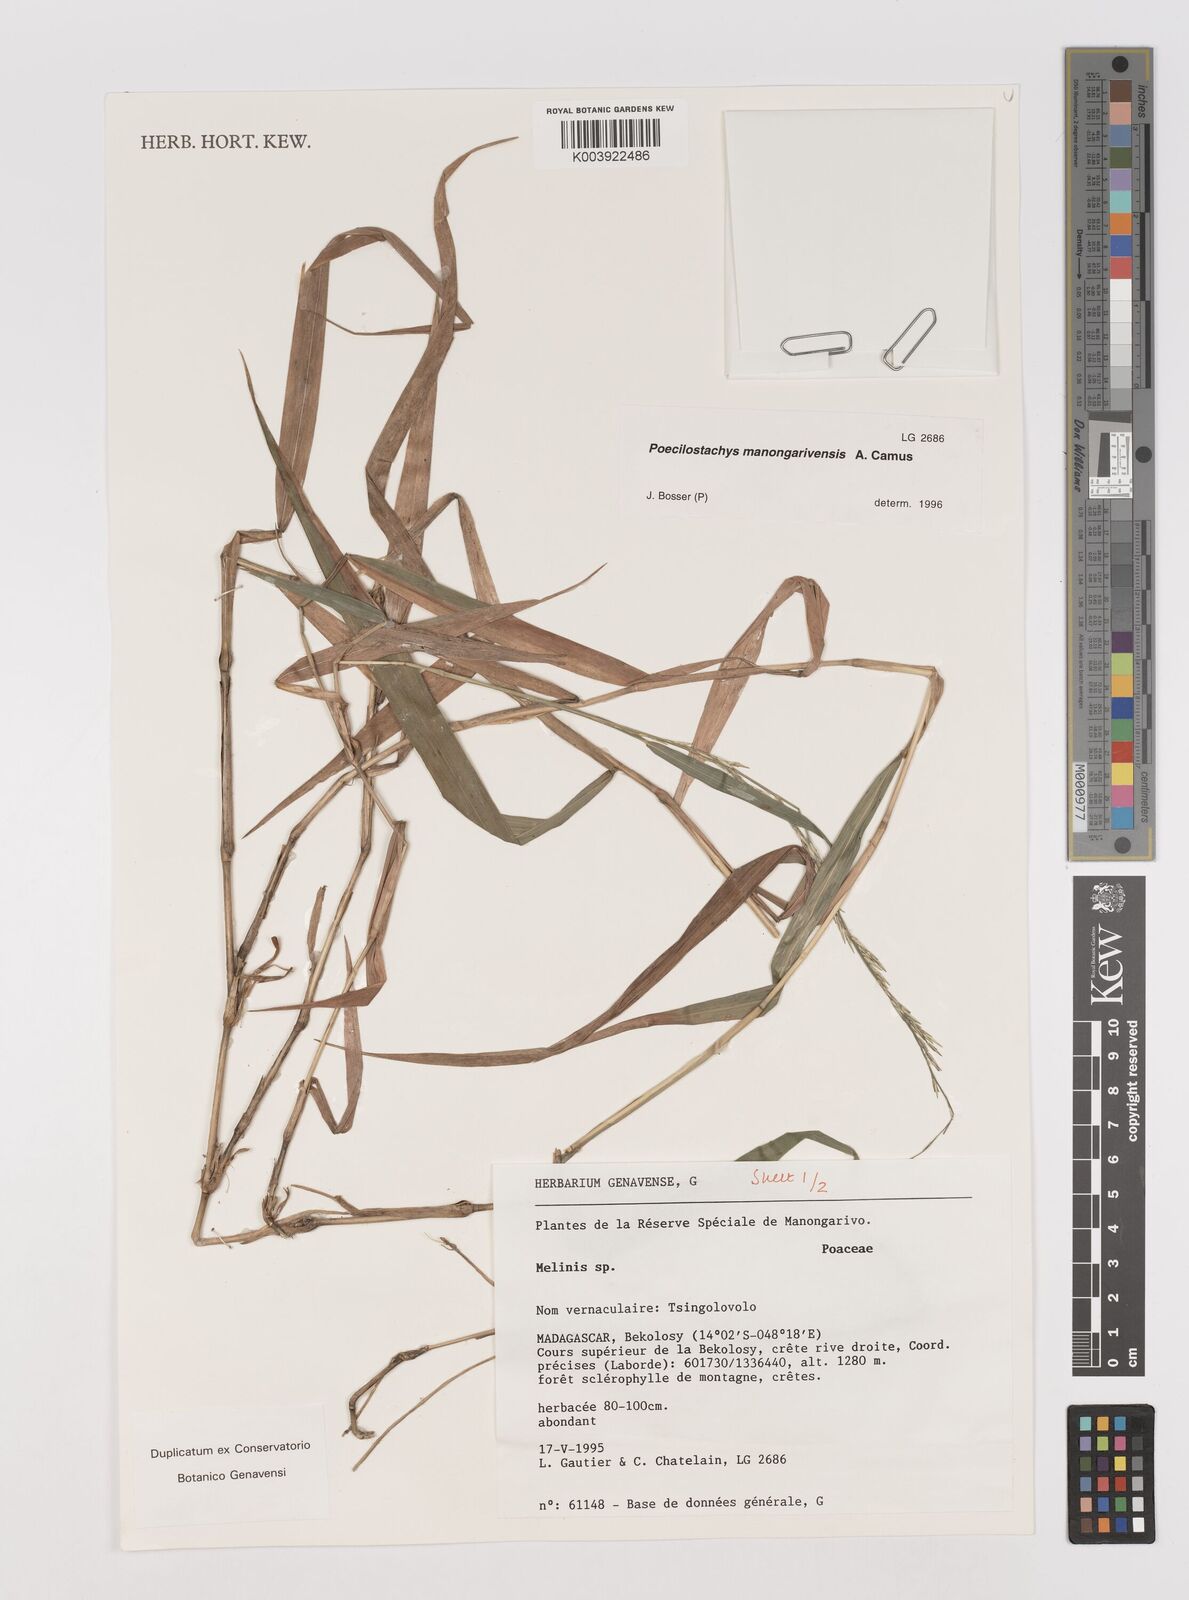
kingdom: Plantae
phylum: Tracheophyta
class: Liliopsida
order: Poales
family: Poaceae
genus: Poecilostachys
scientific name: Poecilostachys manongarivensis
